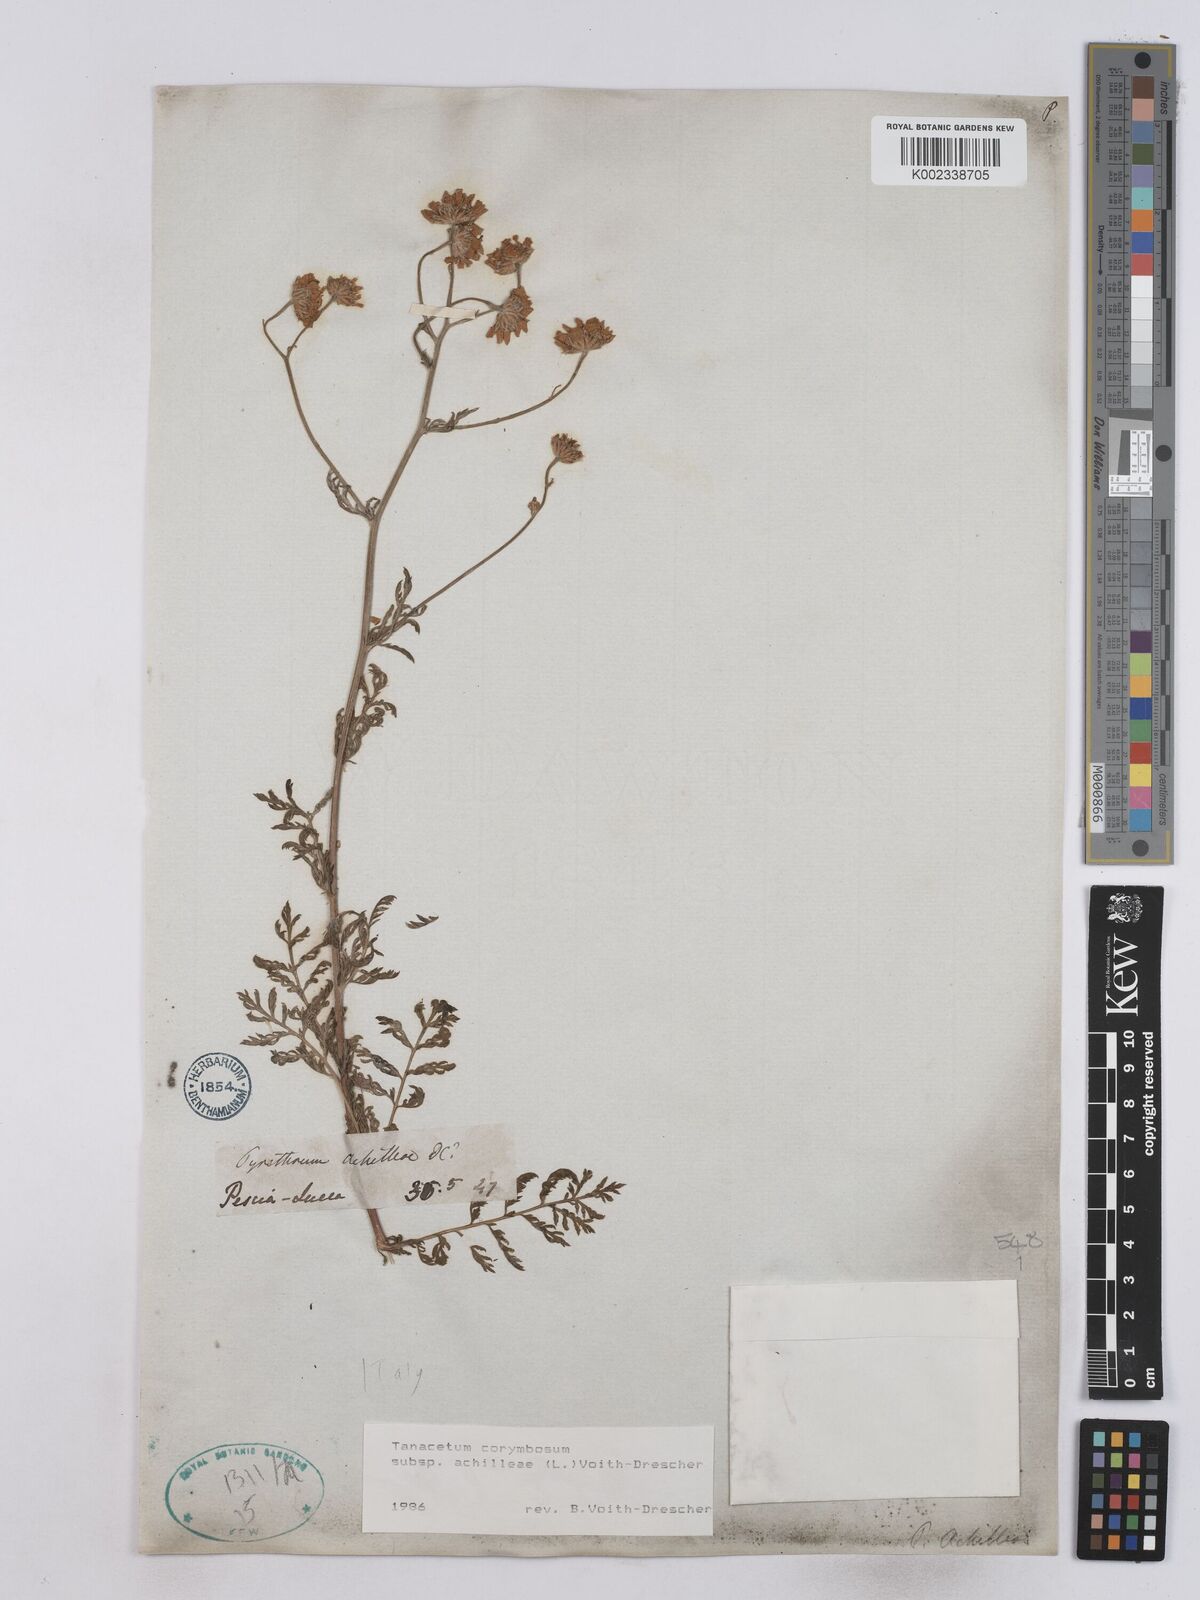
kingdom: Plantae
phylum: Tracheophyta
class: Magnoliopsida
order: Asterales
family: Asteraceae
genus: Tanacetum
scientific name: Tanacetum corymbosum
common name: Scentless feverfew
